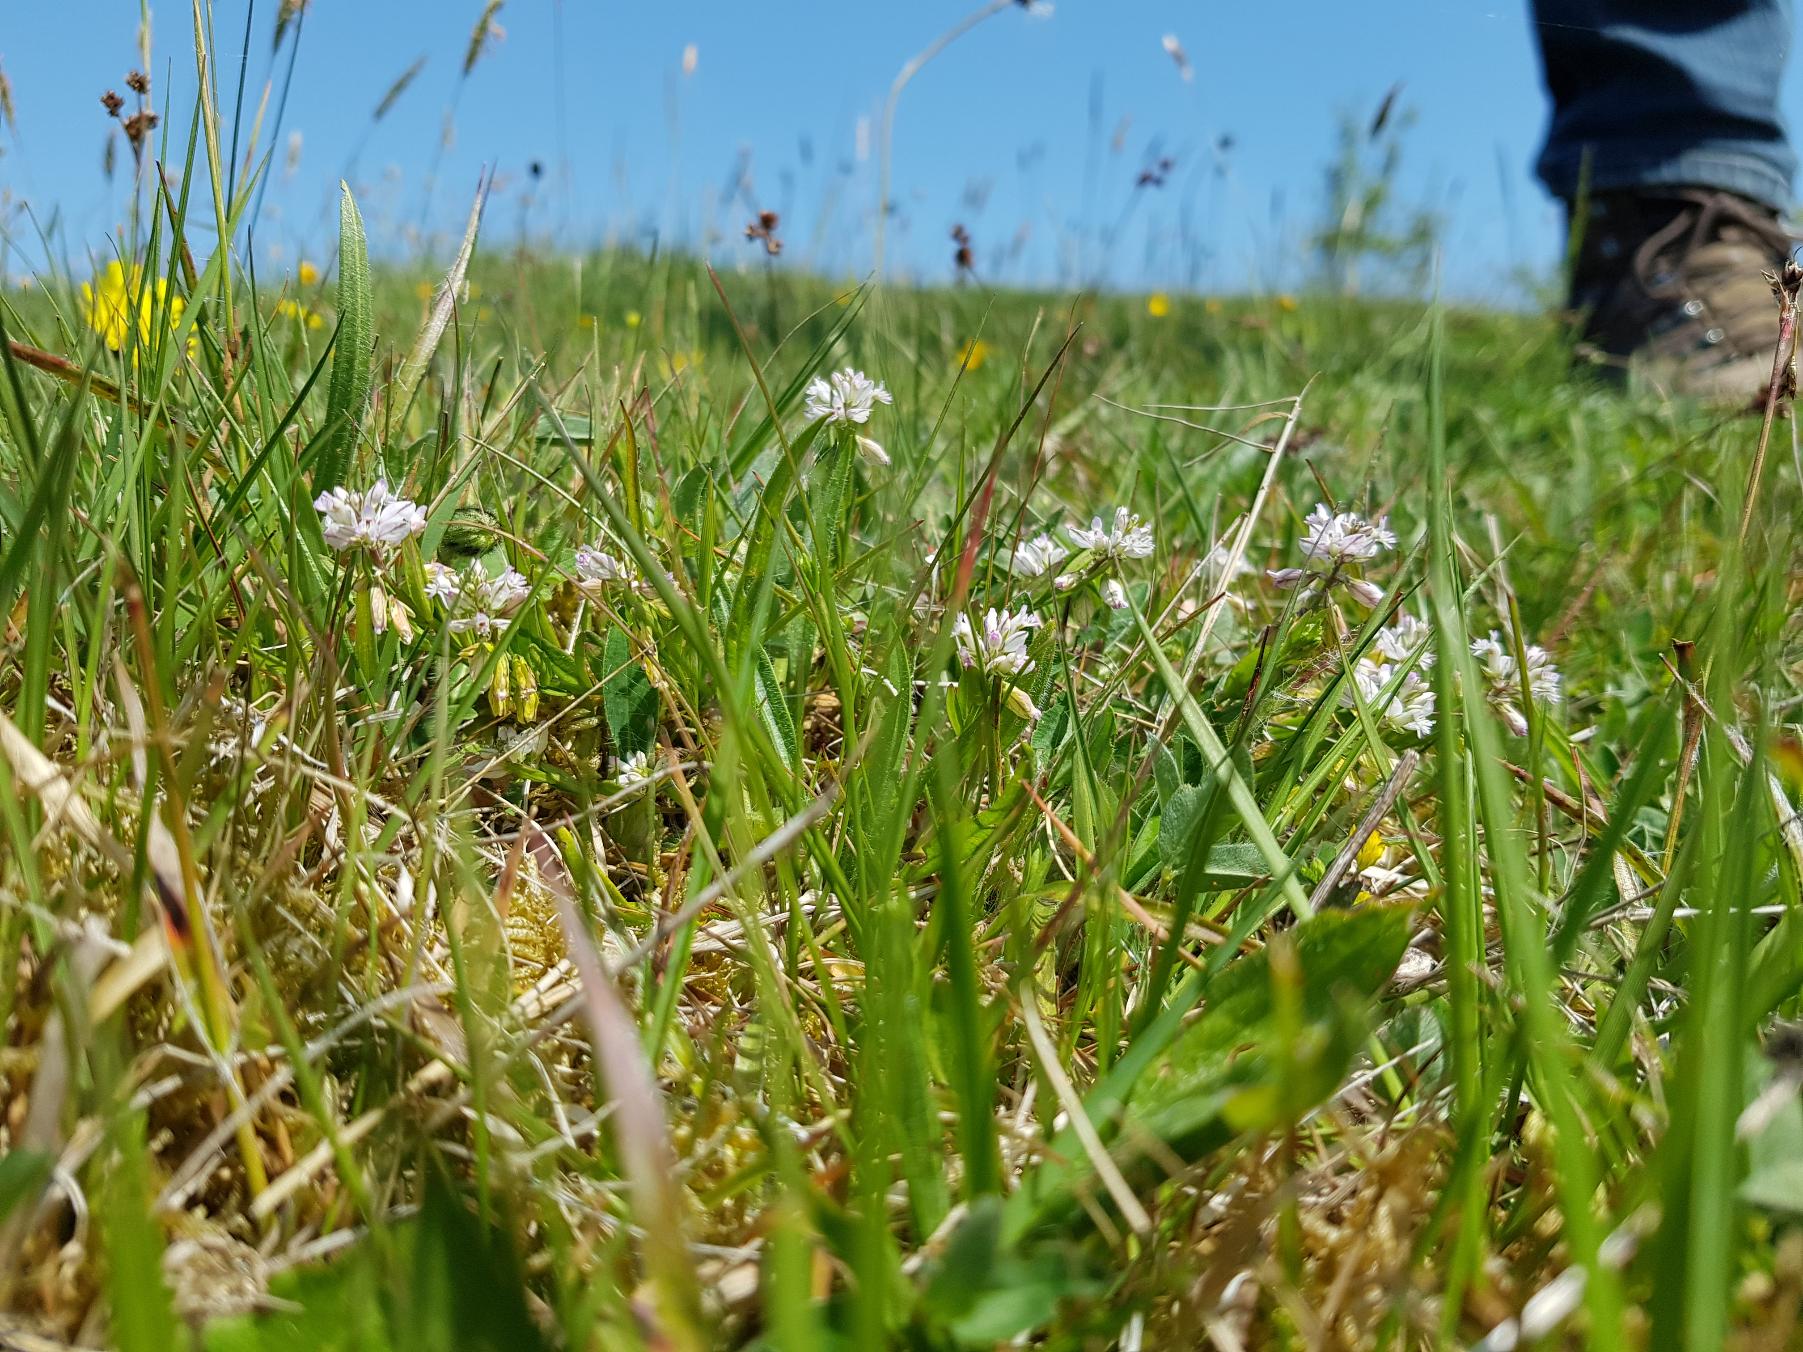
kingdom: Plantae
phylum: Tracheophyta
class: Magnoliopsida
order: Fabales
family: Polygalaceae
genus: Polygala
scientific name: Polygala vulgaris
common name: Almindelig mælkeurt
